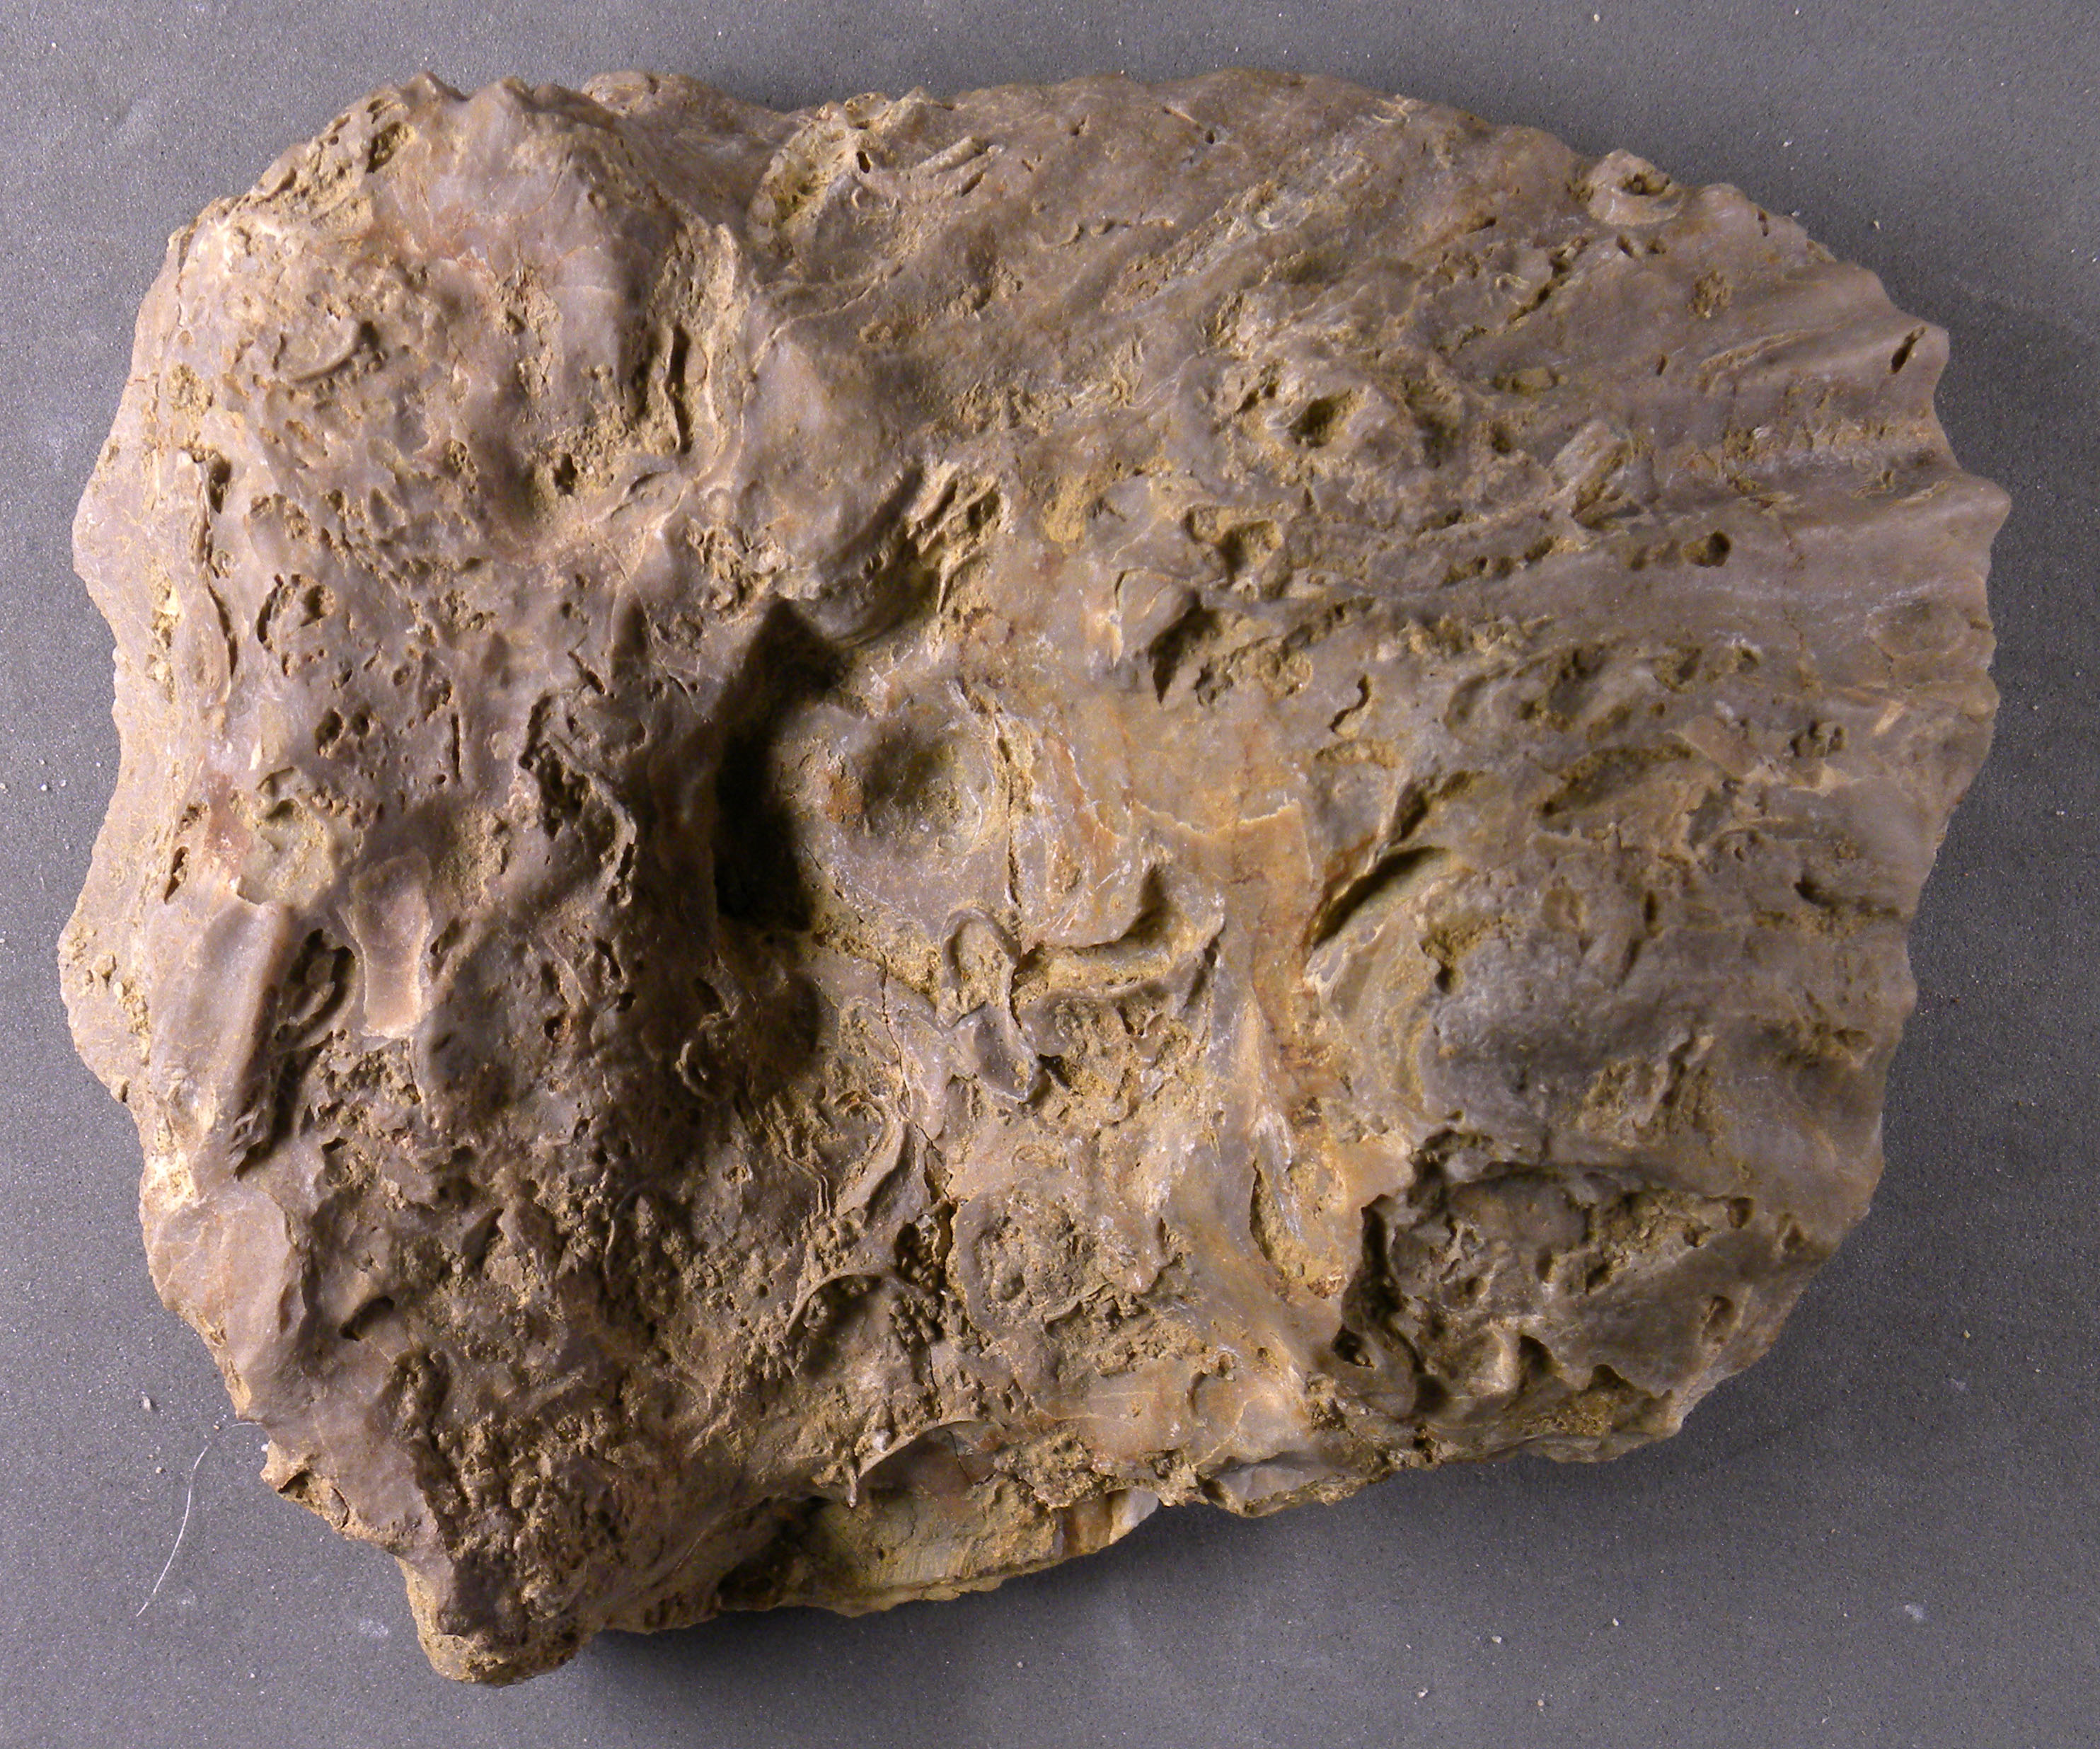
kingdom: Animalia
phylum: Mollusca
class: Bivalvia
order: Ostreida
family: Flemingostreidae
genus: Liostrea
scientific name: Liostrea
